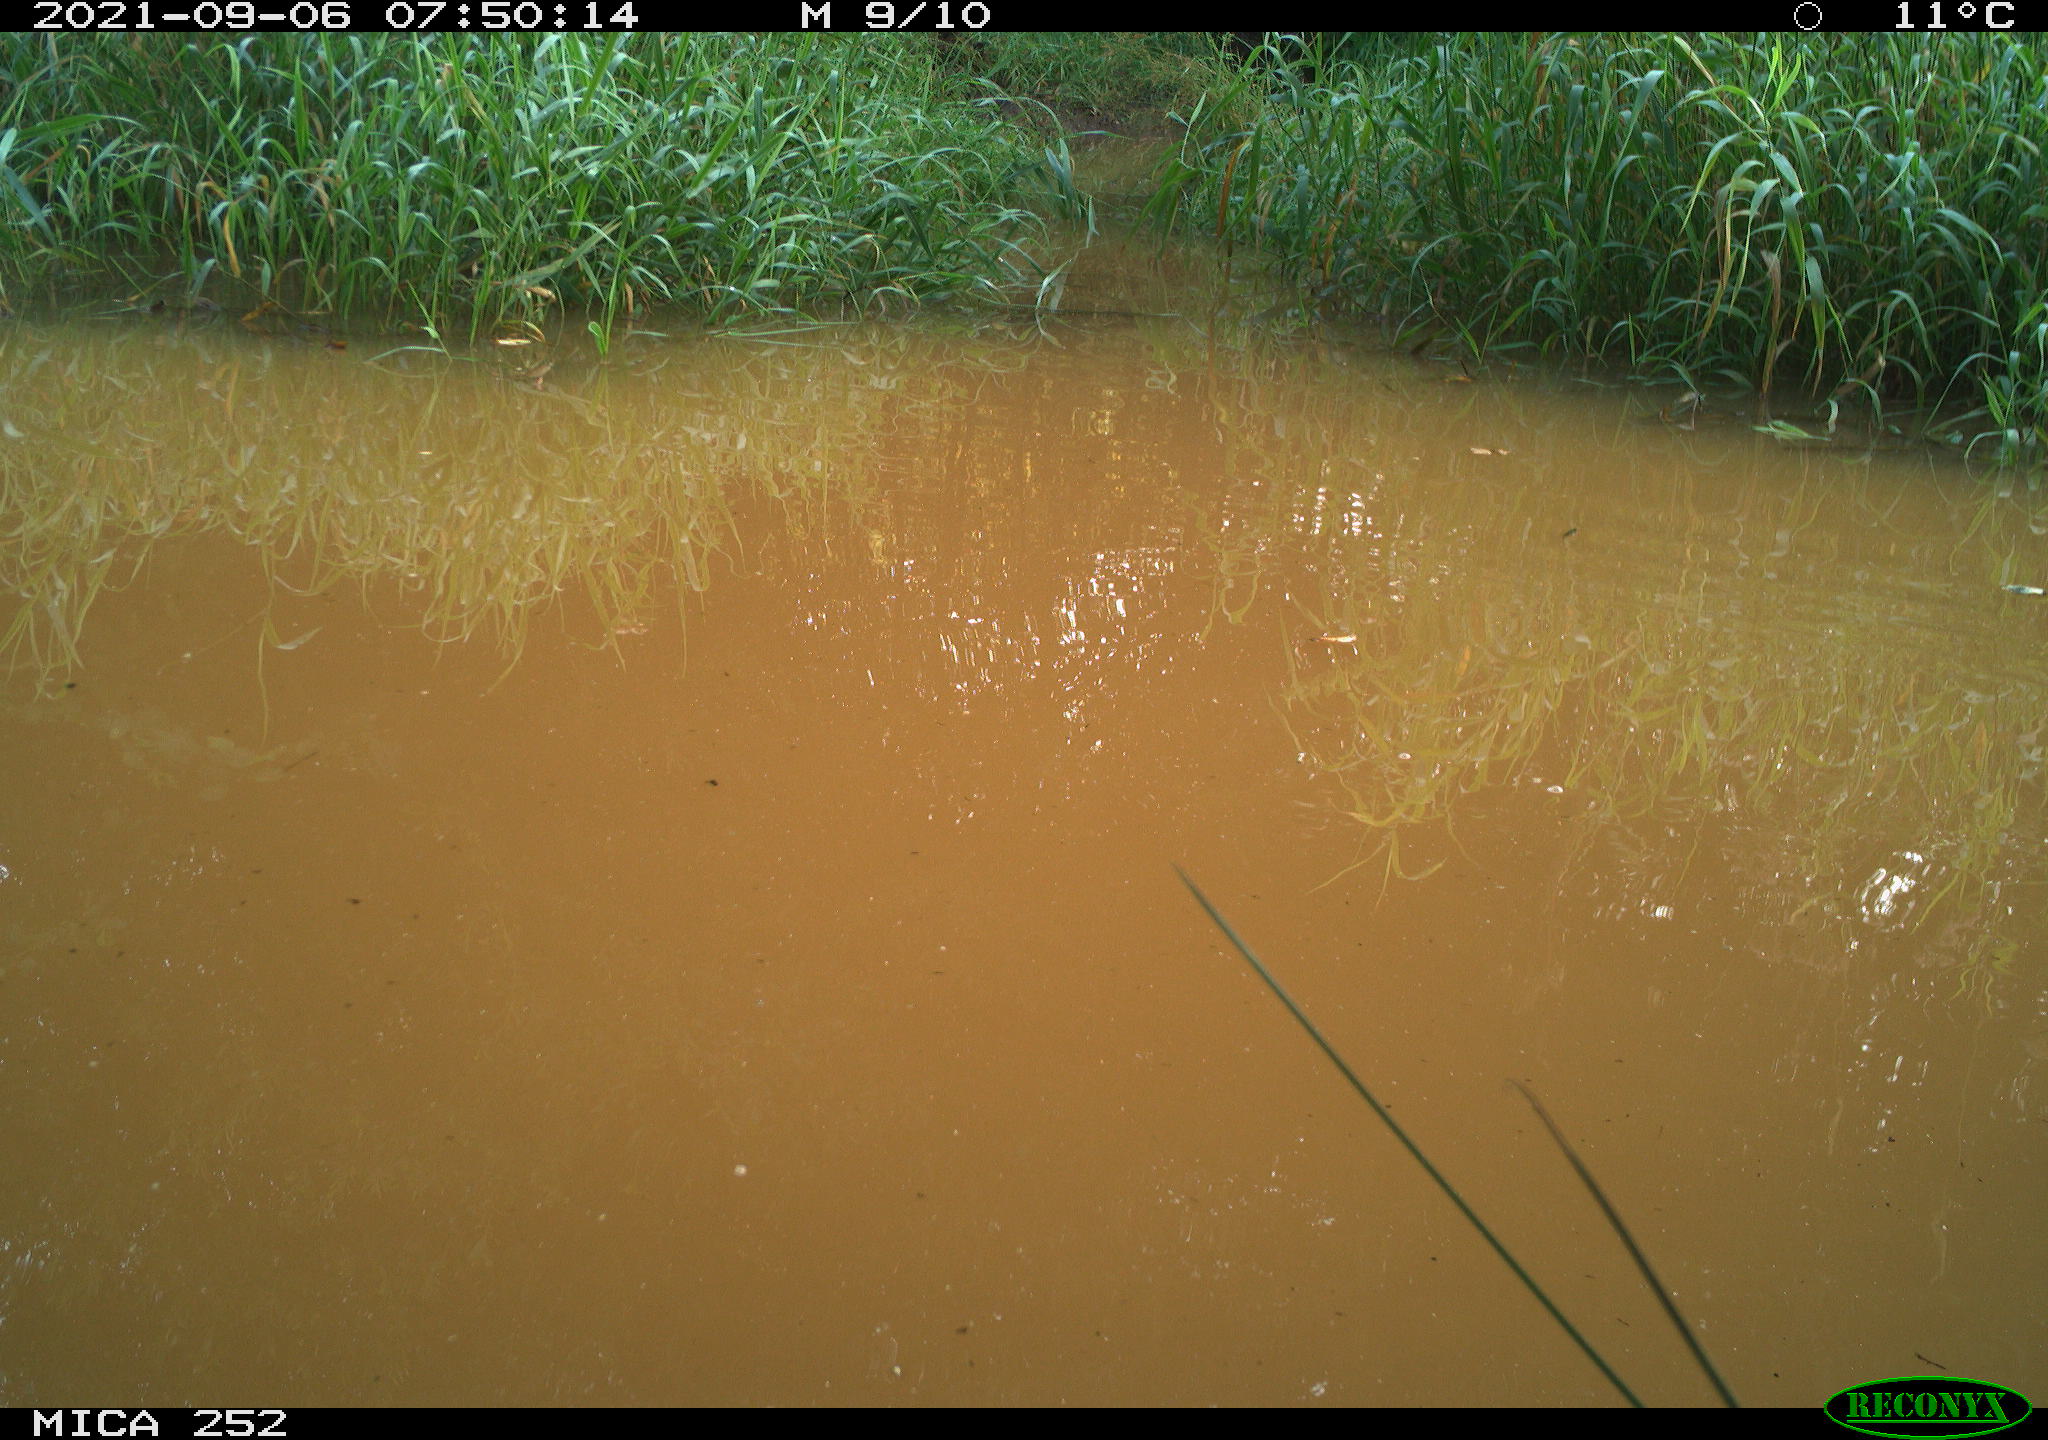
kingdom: Animalia
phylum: Chordata
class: Aves
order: Anseriformes
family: Anatidae
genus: Aix
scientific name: Aix galericulata
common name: Mandarin duck
